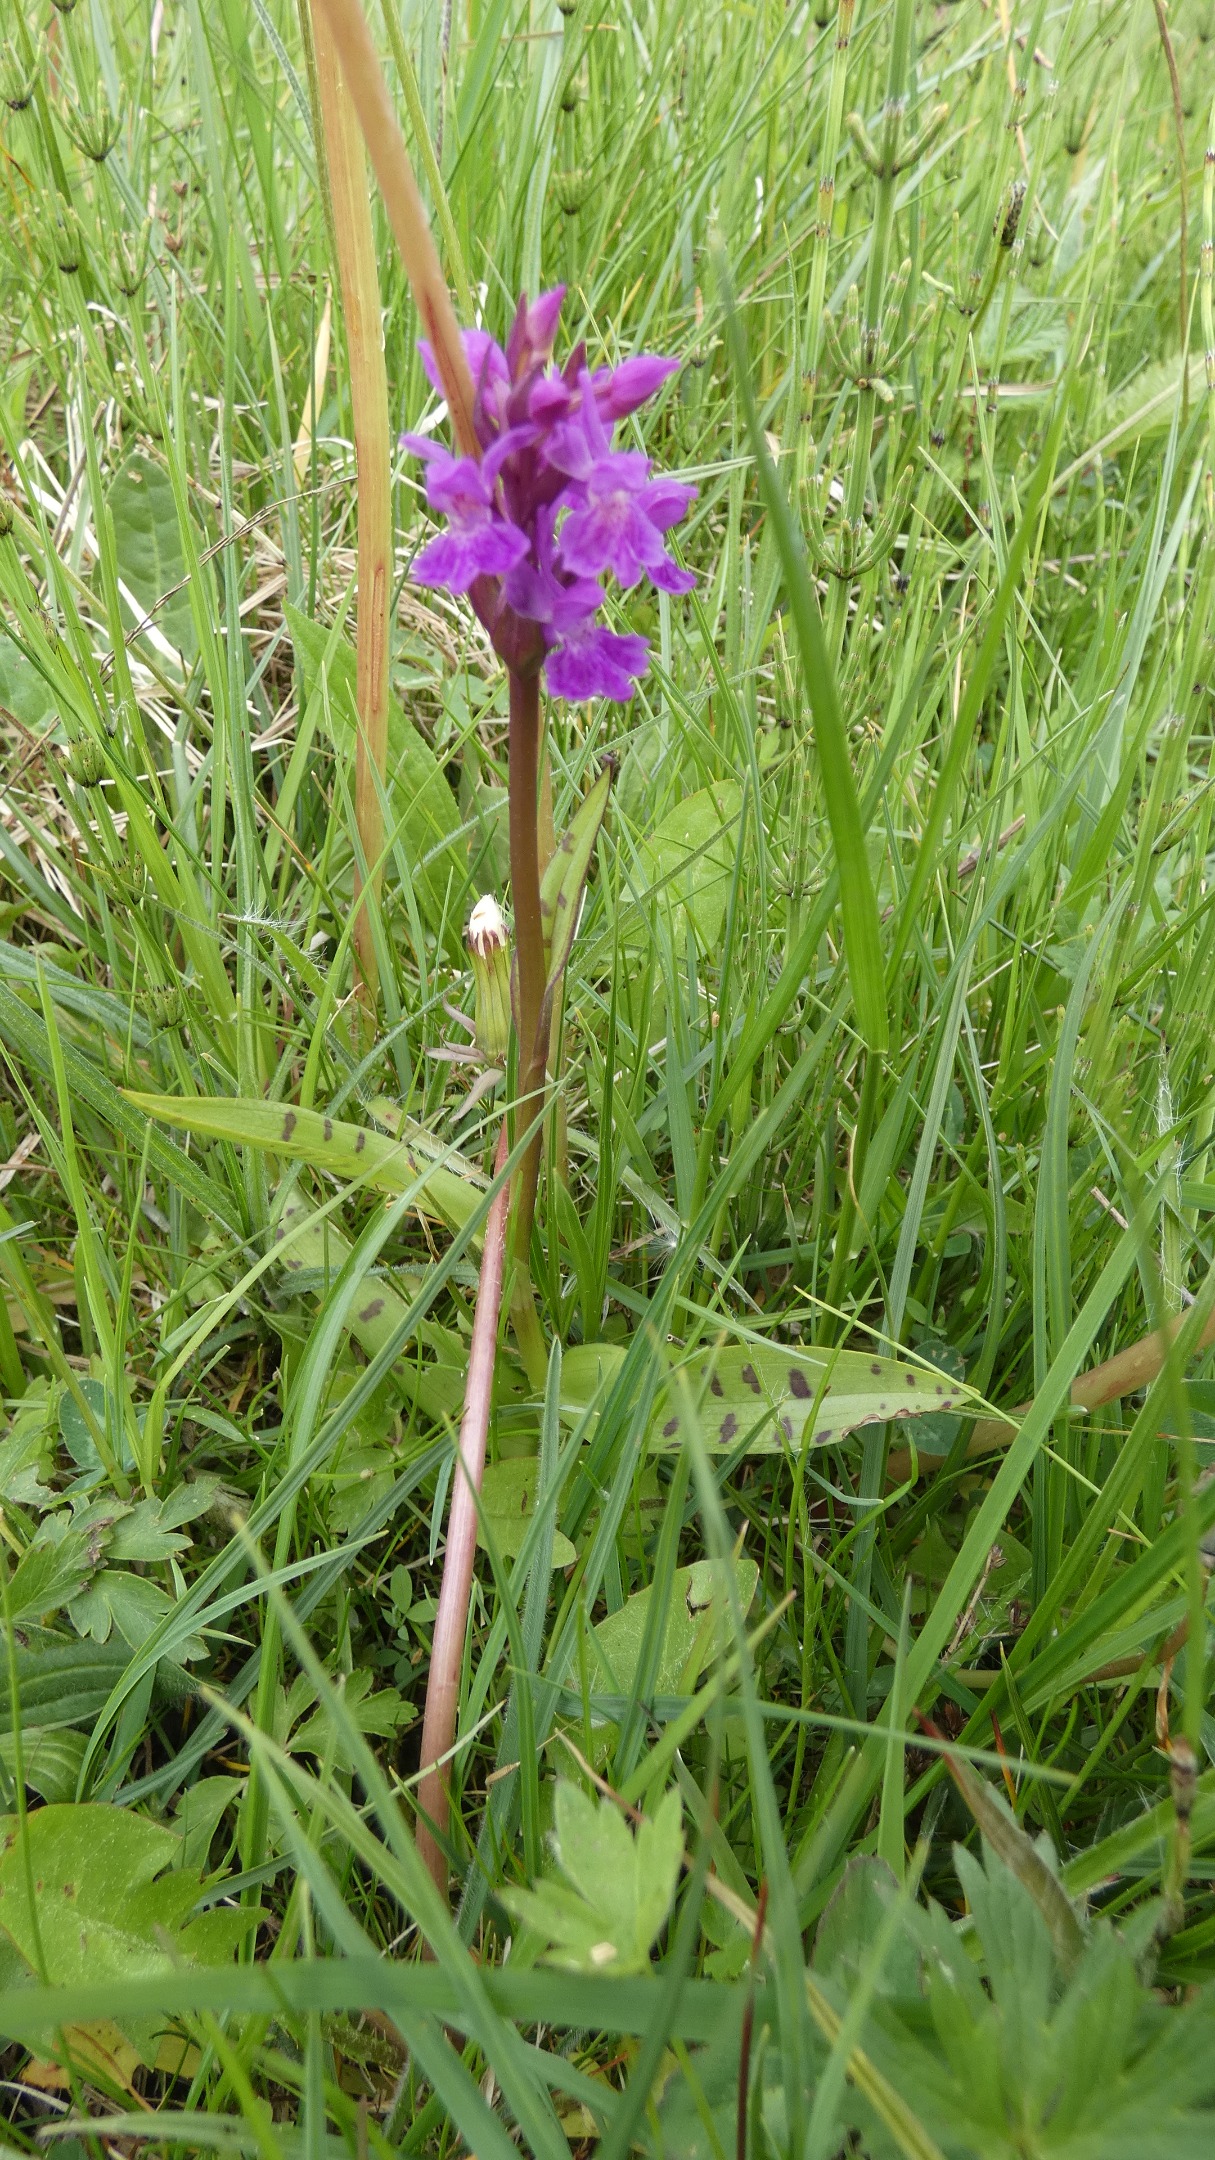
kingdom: Plantae
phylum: Tracheophyta
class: Liliopsida
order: Asparagales
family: Orchidaceae
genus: Dactylorhiza
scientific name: Dactylorhiza majalis
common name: Maj-gøgeurt
